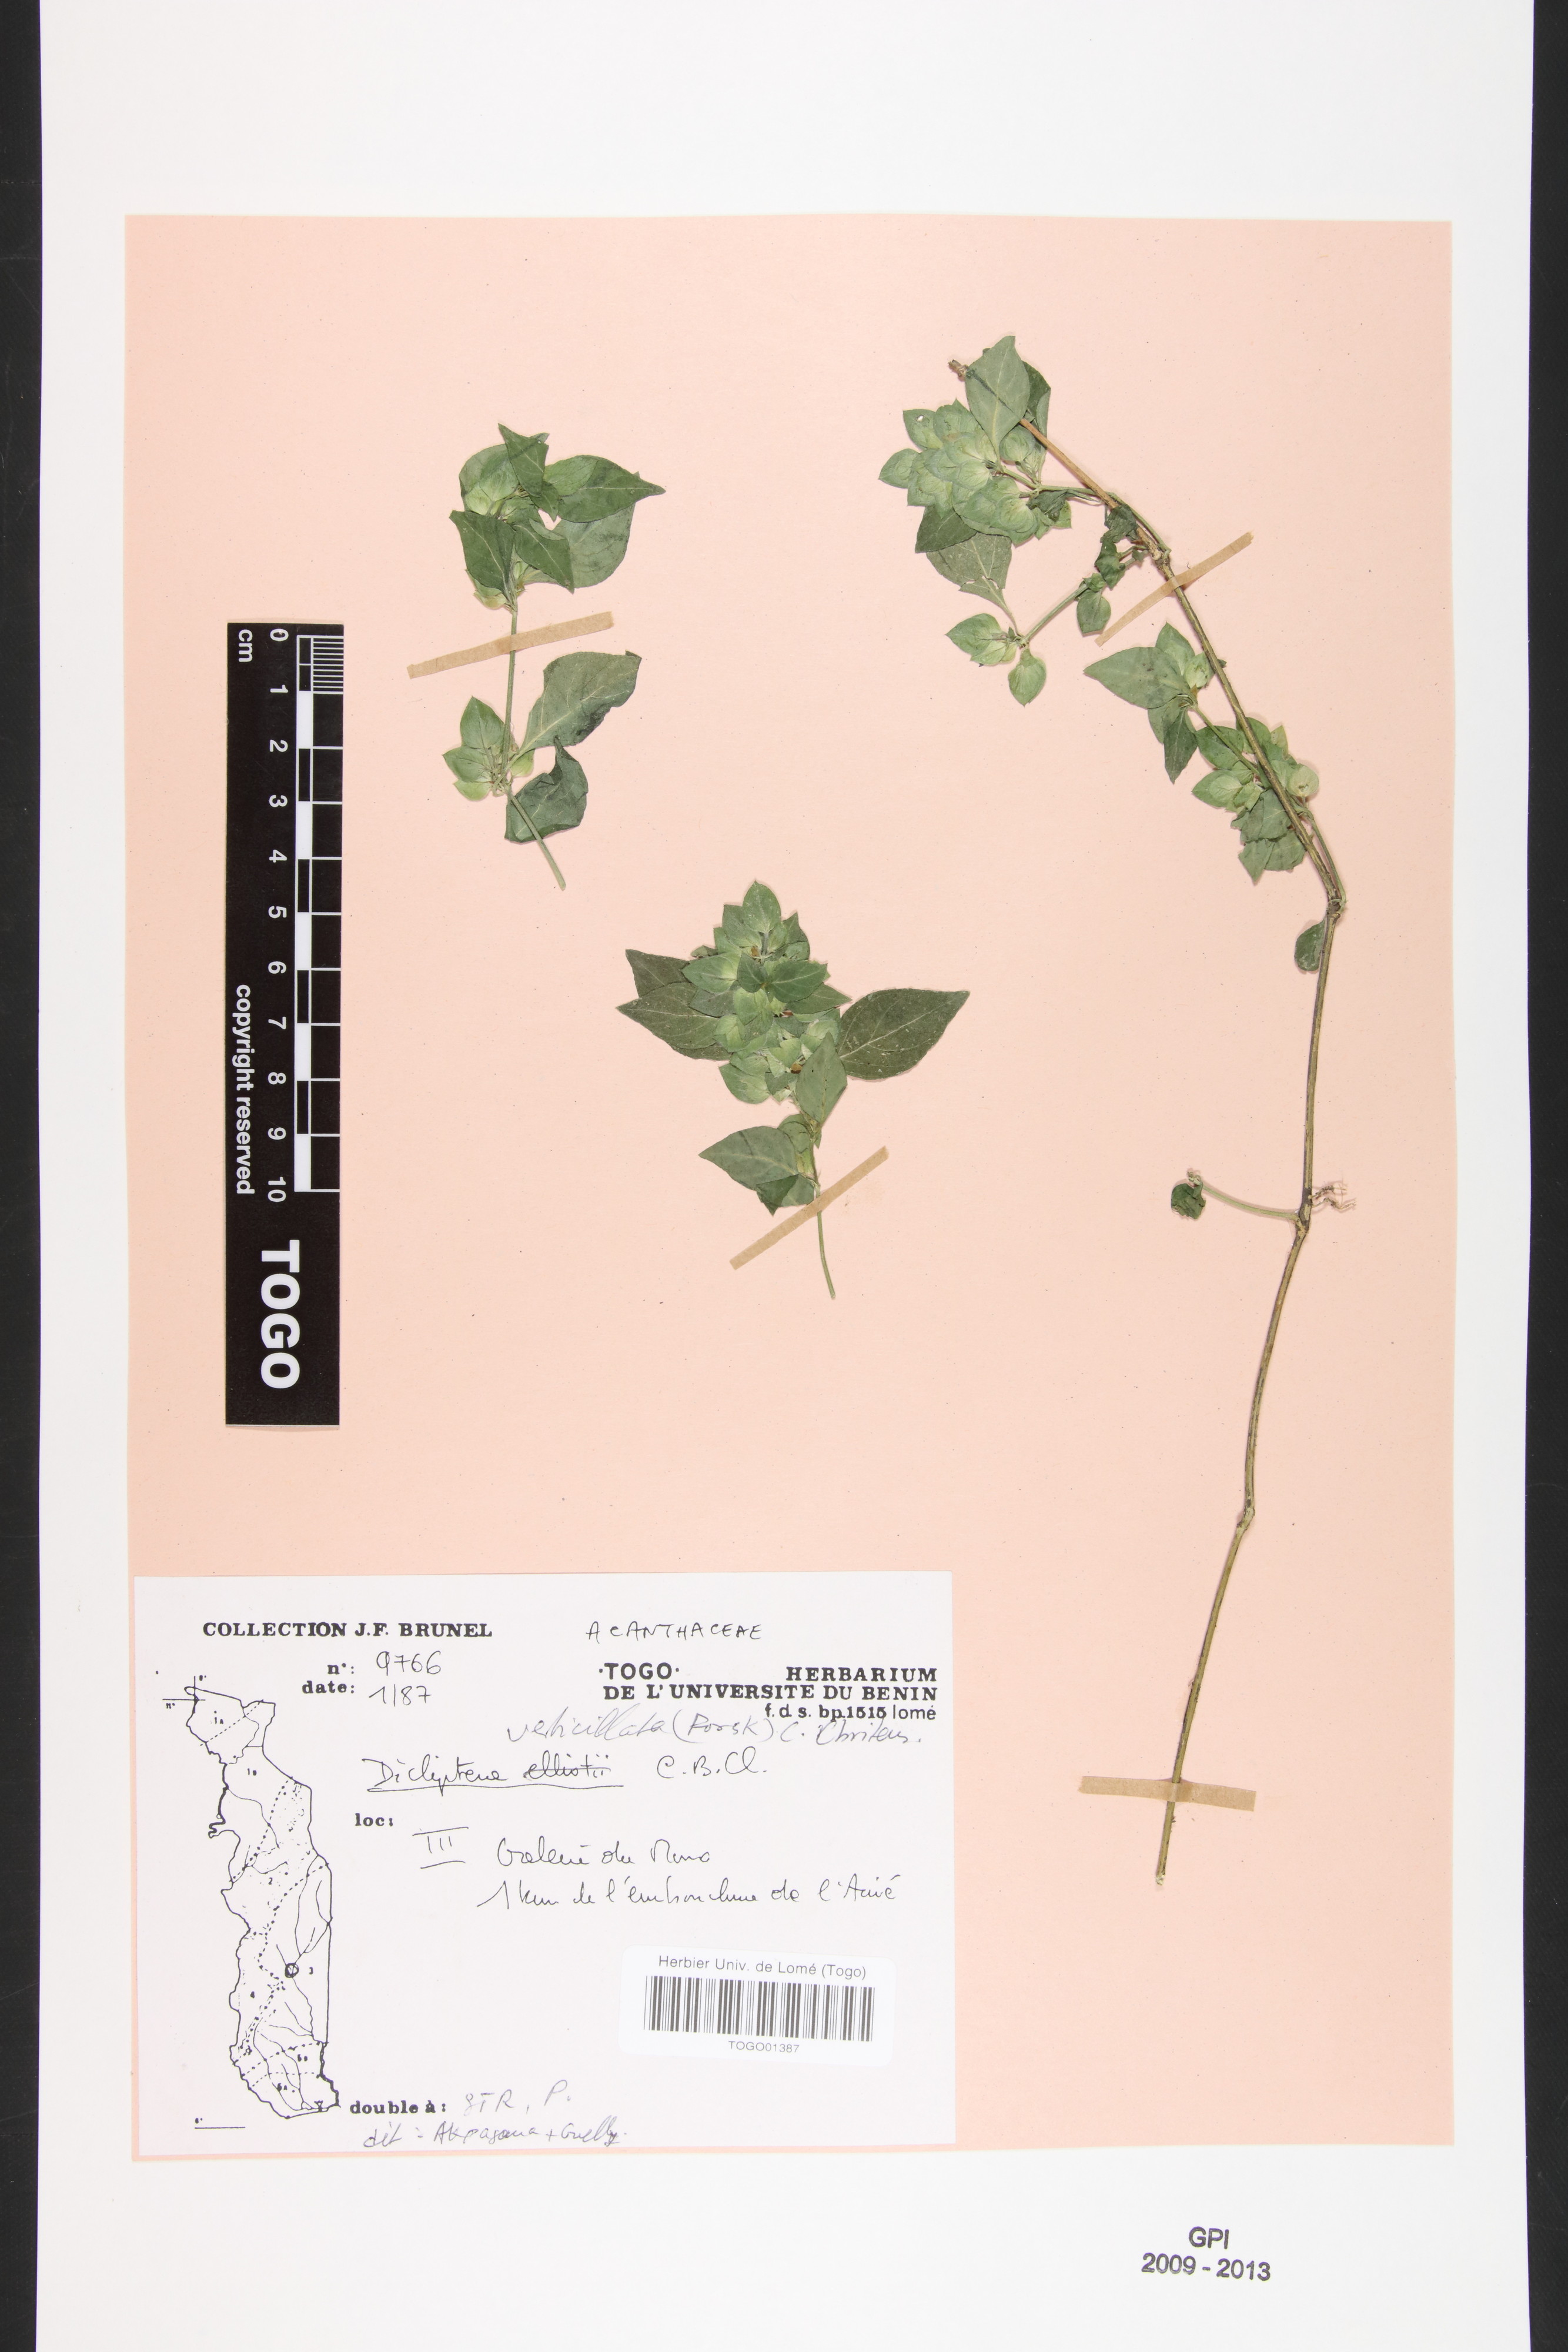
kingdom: Plantae
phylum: Tracheophyta
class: Magnoliopsida
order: Lamiales
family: Acanthaceae
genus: Dicliptera
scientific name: Dicliptera verticillata
